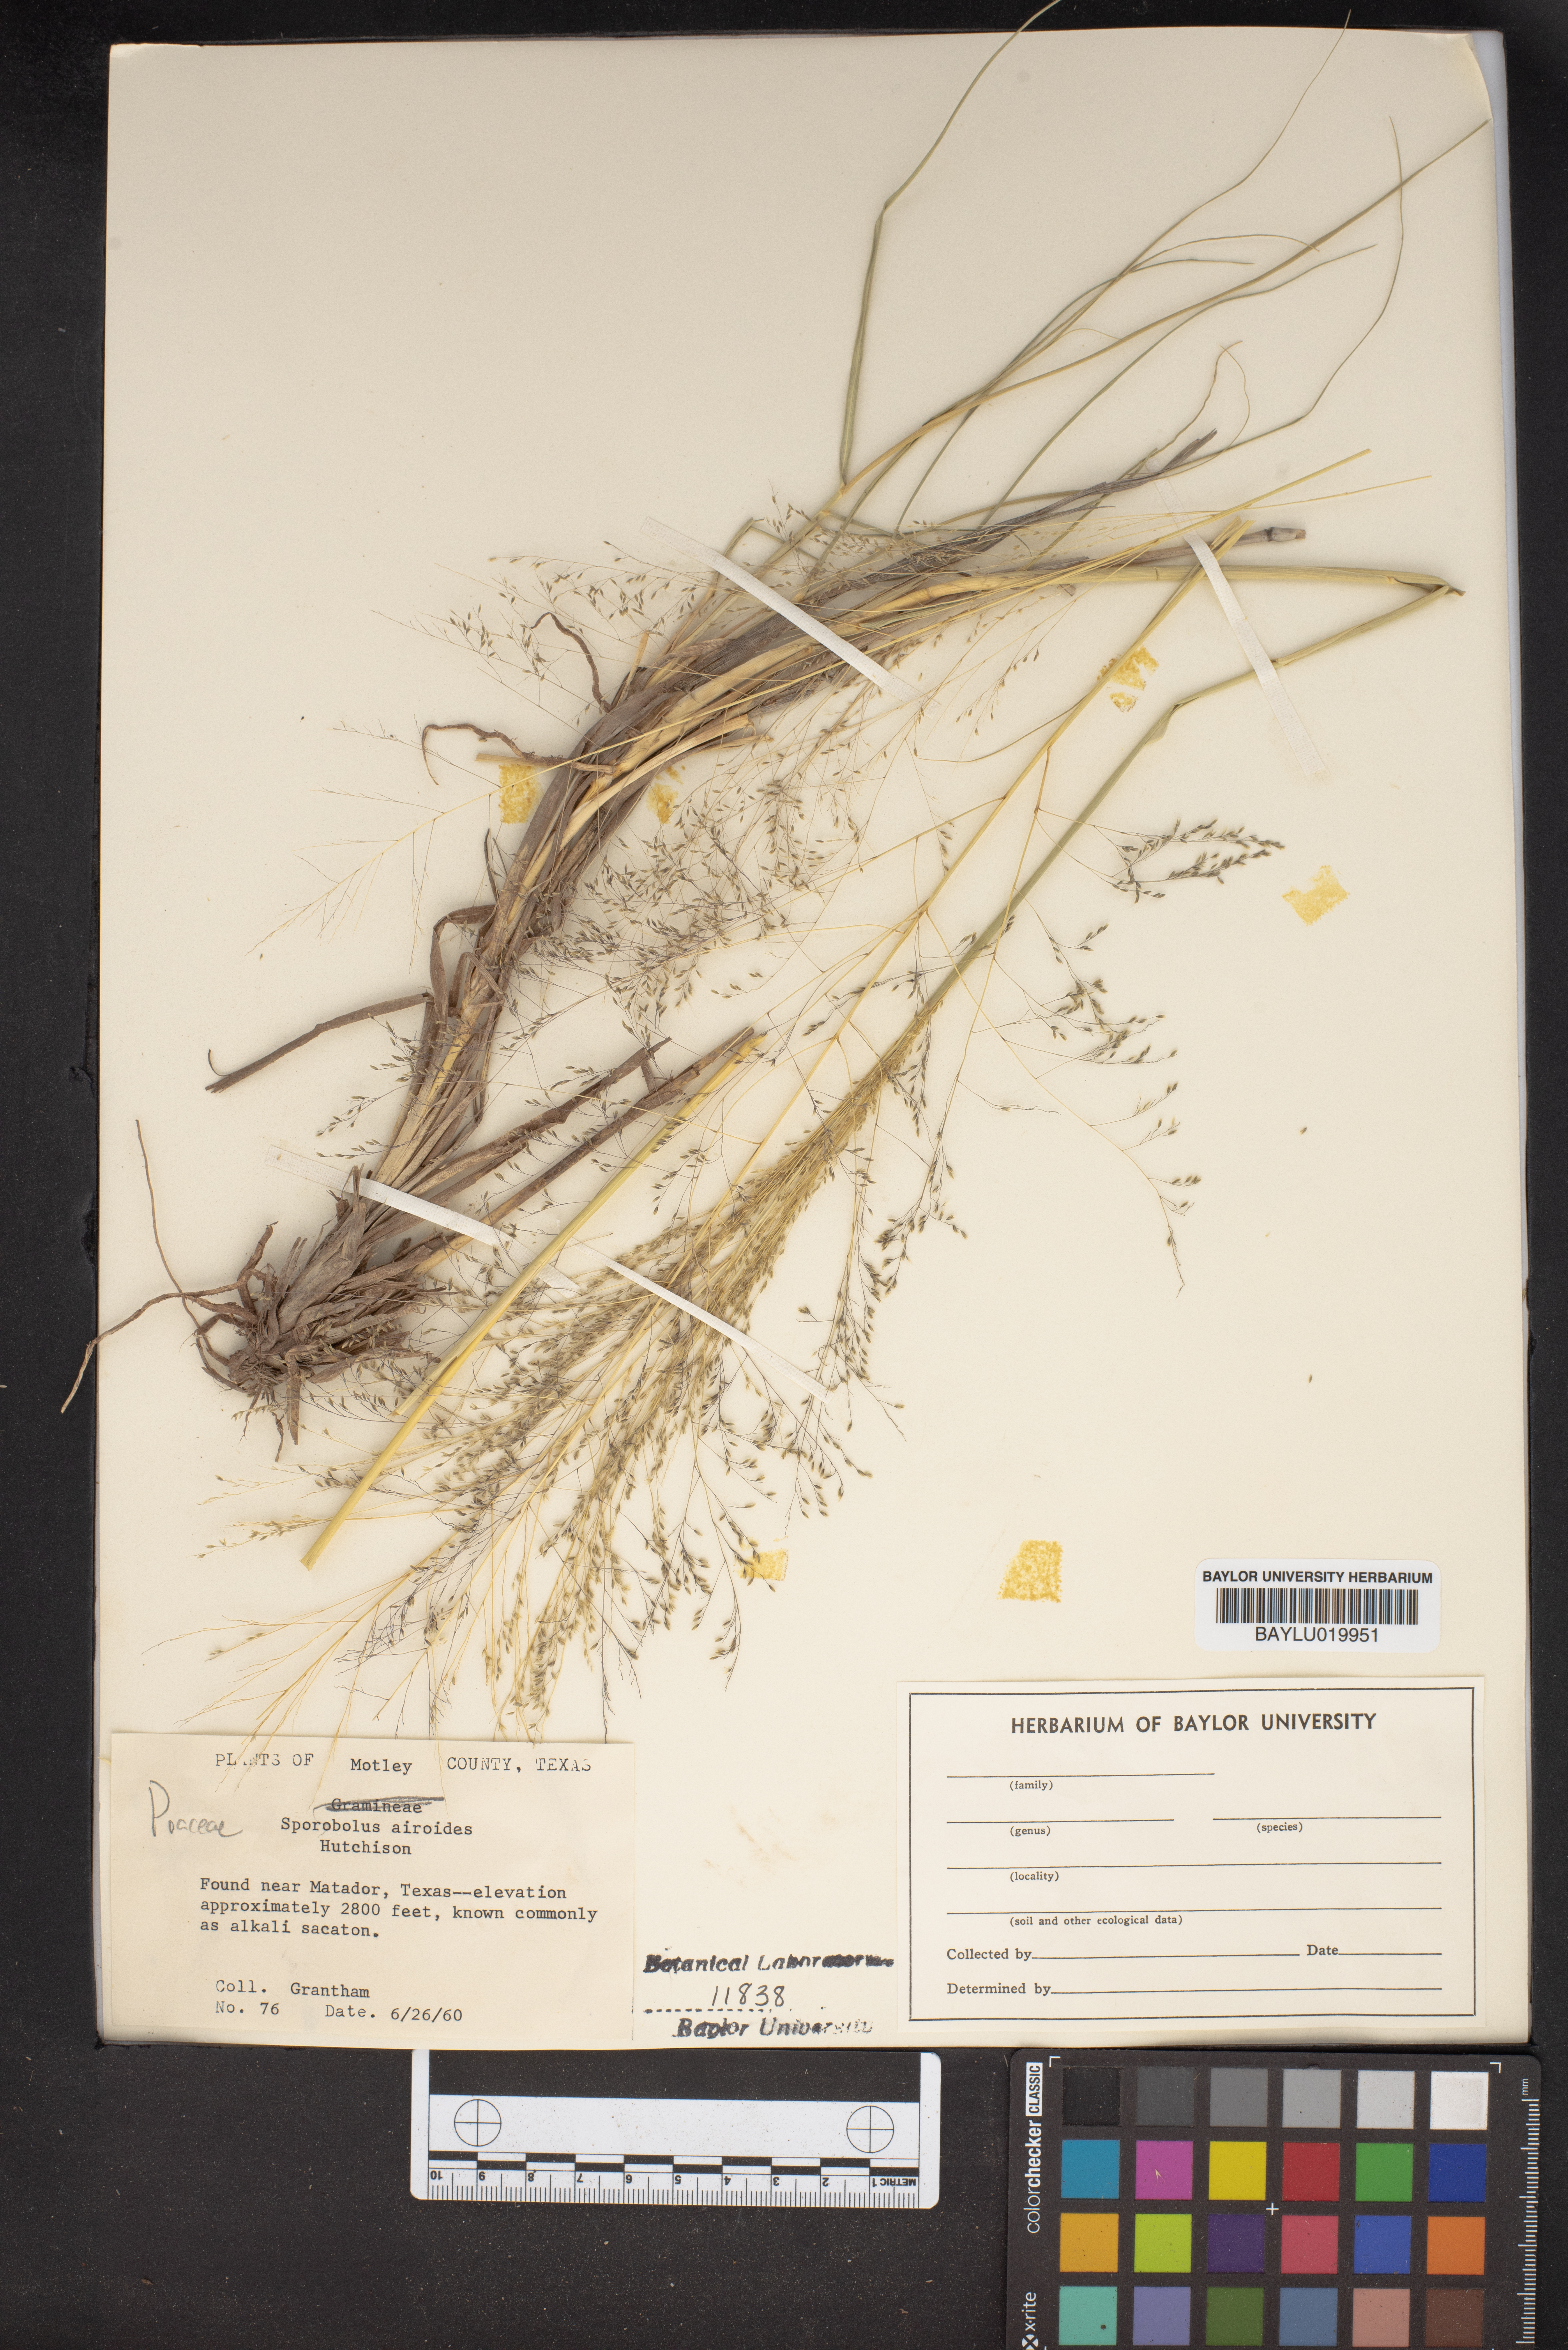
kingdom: Plantae
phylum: Tracheophyta
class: Liliopsida
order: Poales
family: Poaceae
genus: Sporobolus
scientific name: Sporobolus airoides
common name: Alkali sacaton
